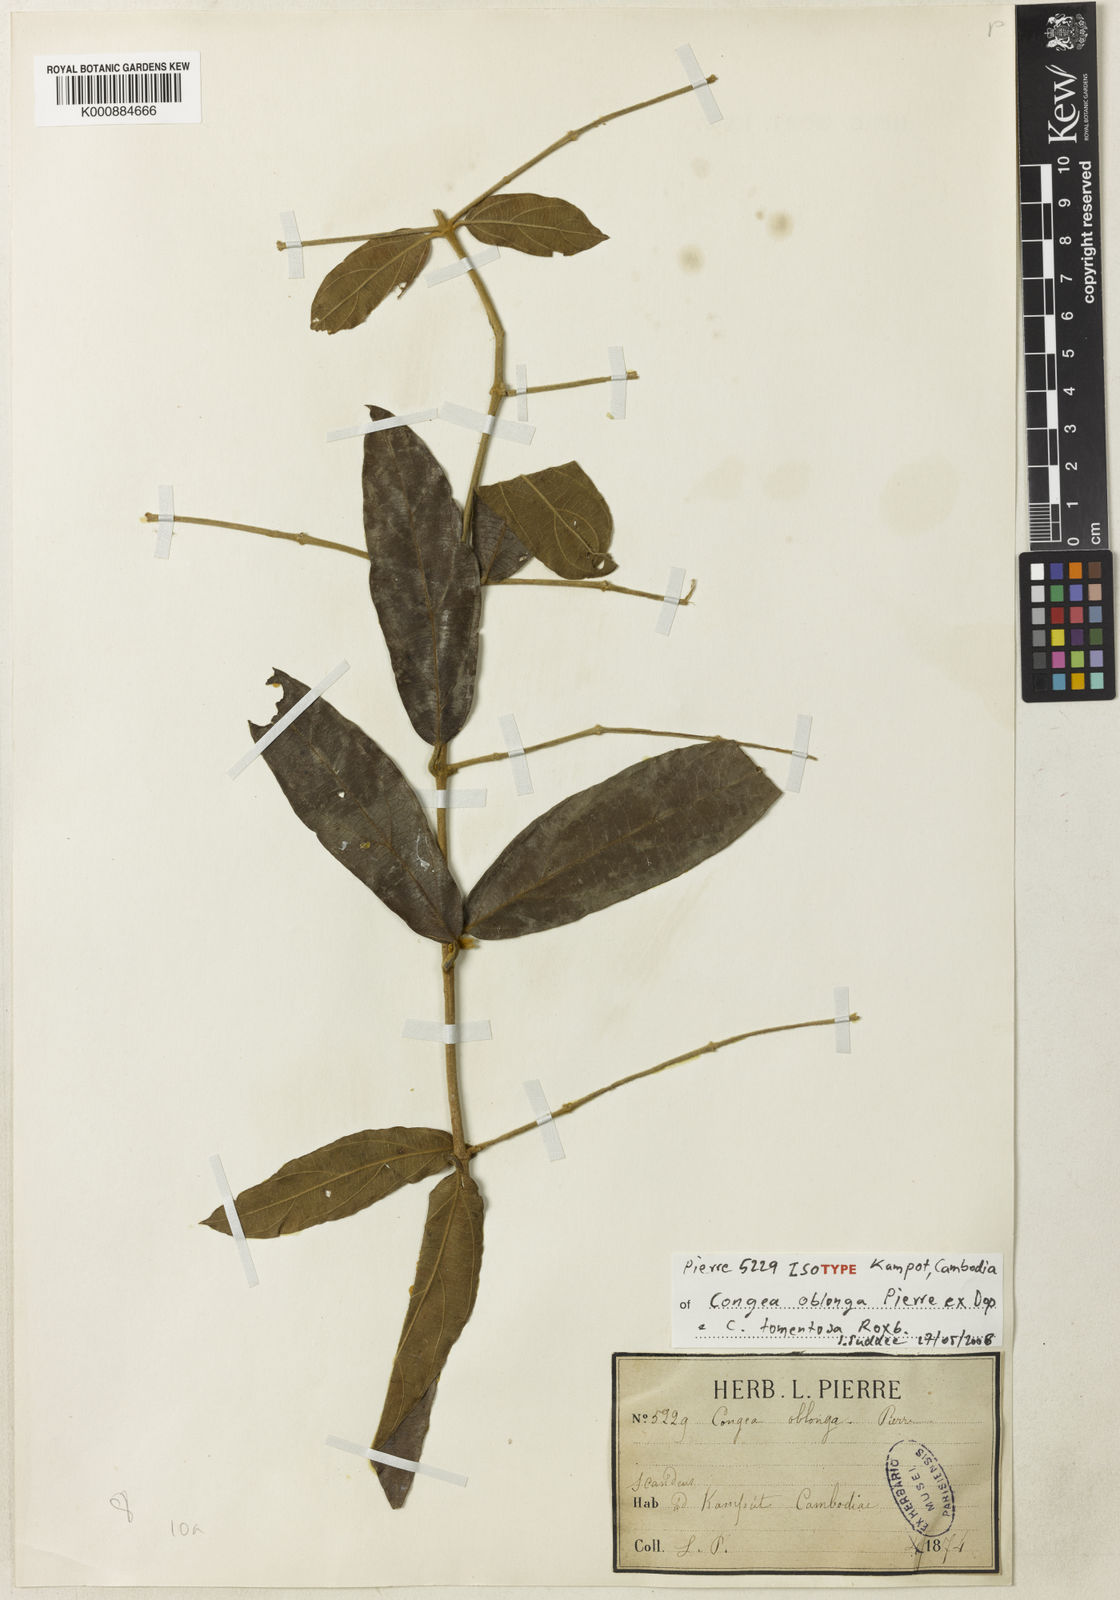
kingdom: Plantae
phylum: Tracheophyta
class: Magnoliopsida
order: Lamiales
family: Lamiaceae
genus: Congea
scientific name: Congea tomentosa
